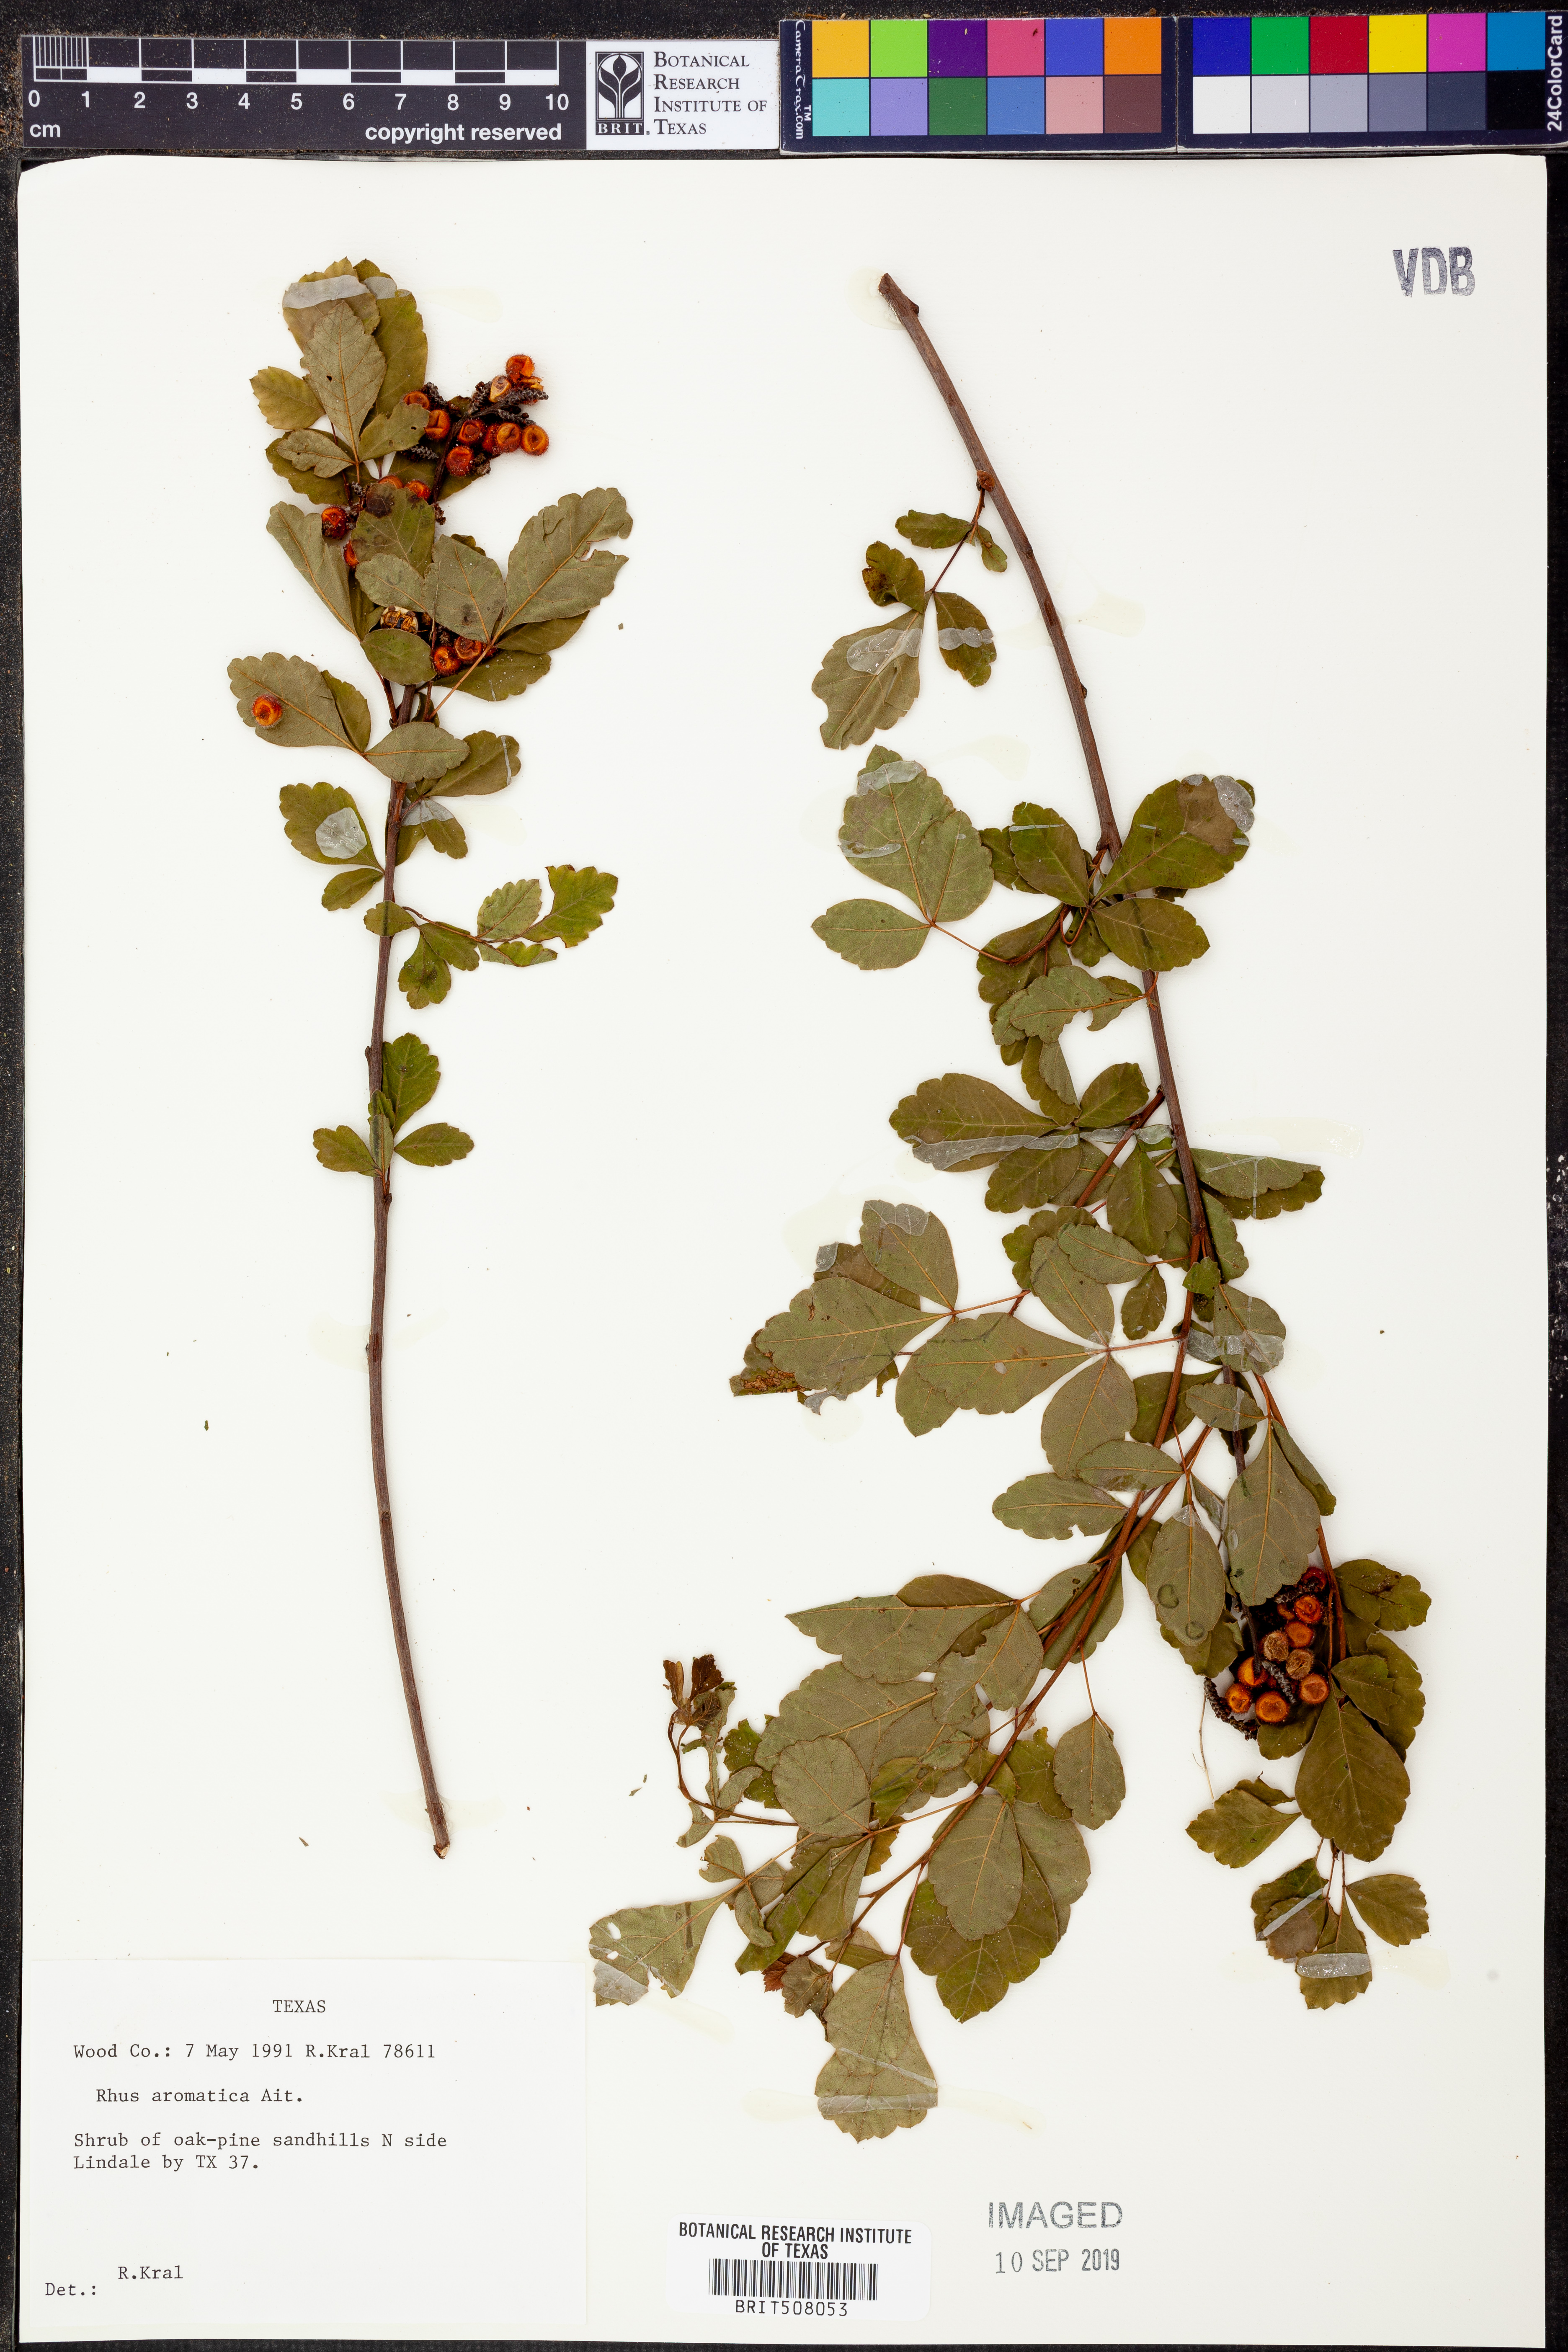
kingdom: Plantae
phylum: Tracheophyta
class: Magnoliopsida
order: Sapindales
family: Anacardiaceae
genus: Rhus
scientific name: Rhus aromatica
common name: Aromatic sumac
